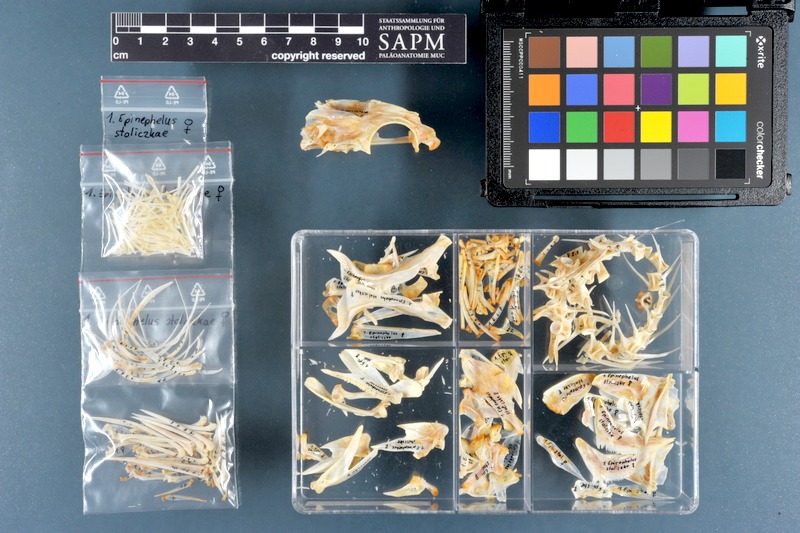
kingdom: Animalia
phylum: Chordata
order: Perciformes
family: Serranidae
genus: Epinephelus
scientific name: Epinephelus stoliczkae
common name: Epaulet grouper
